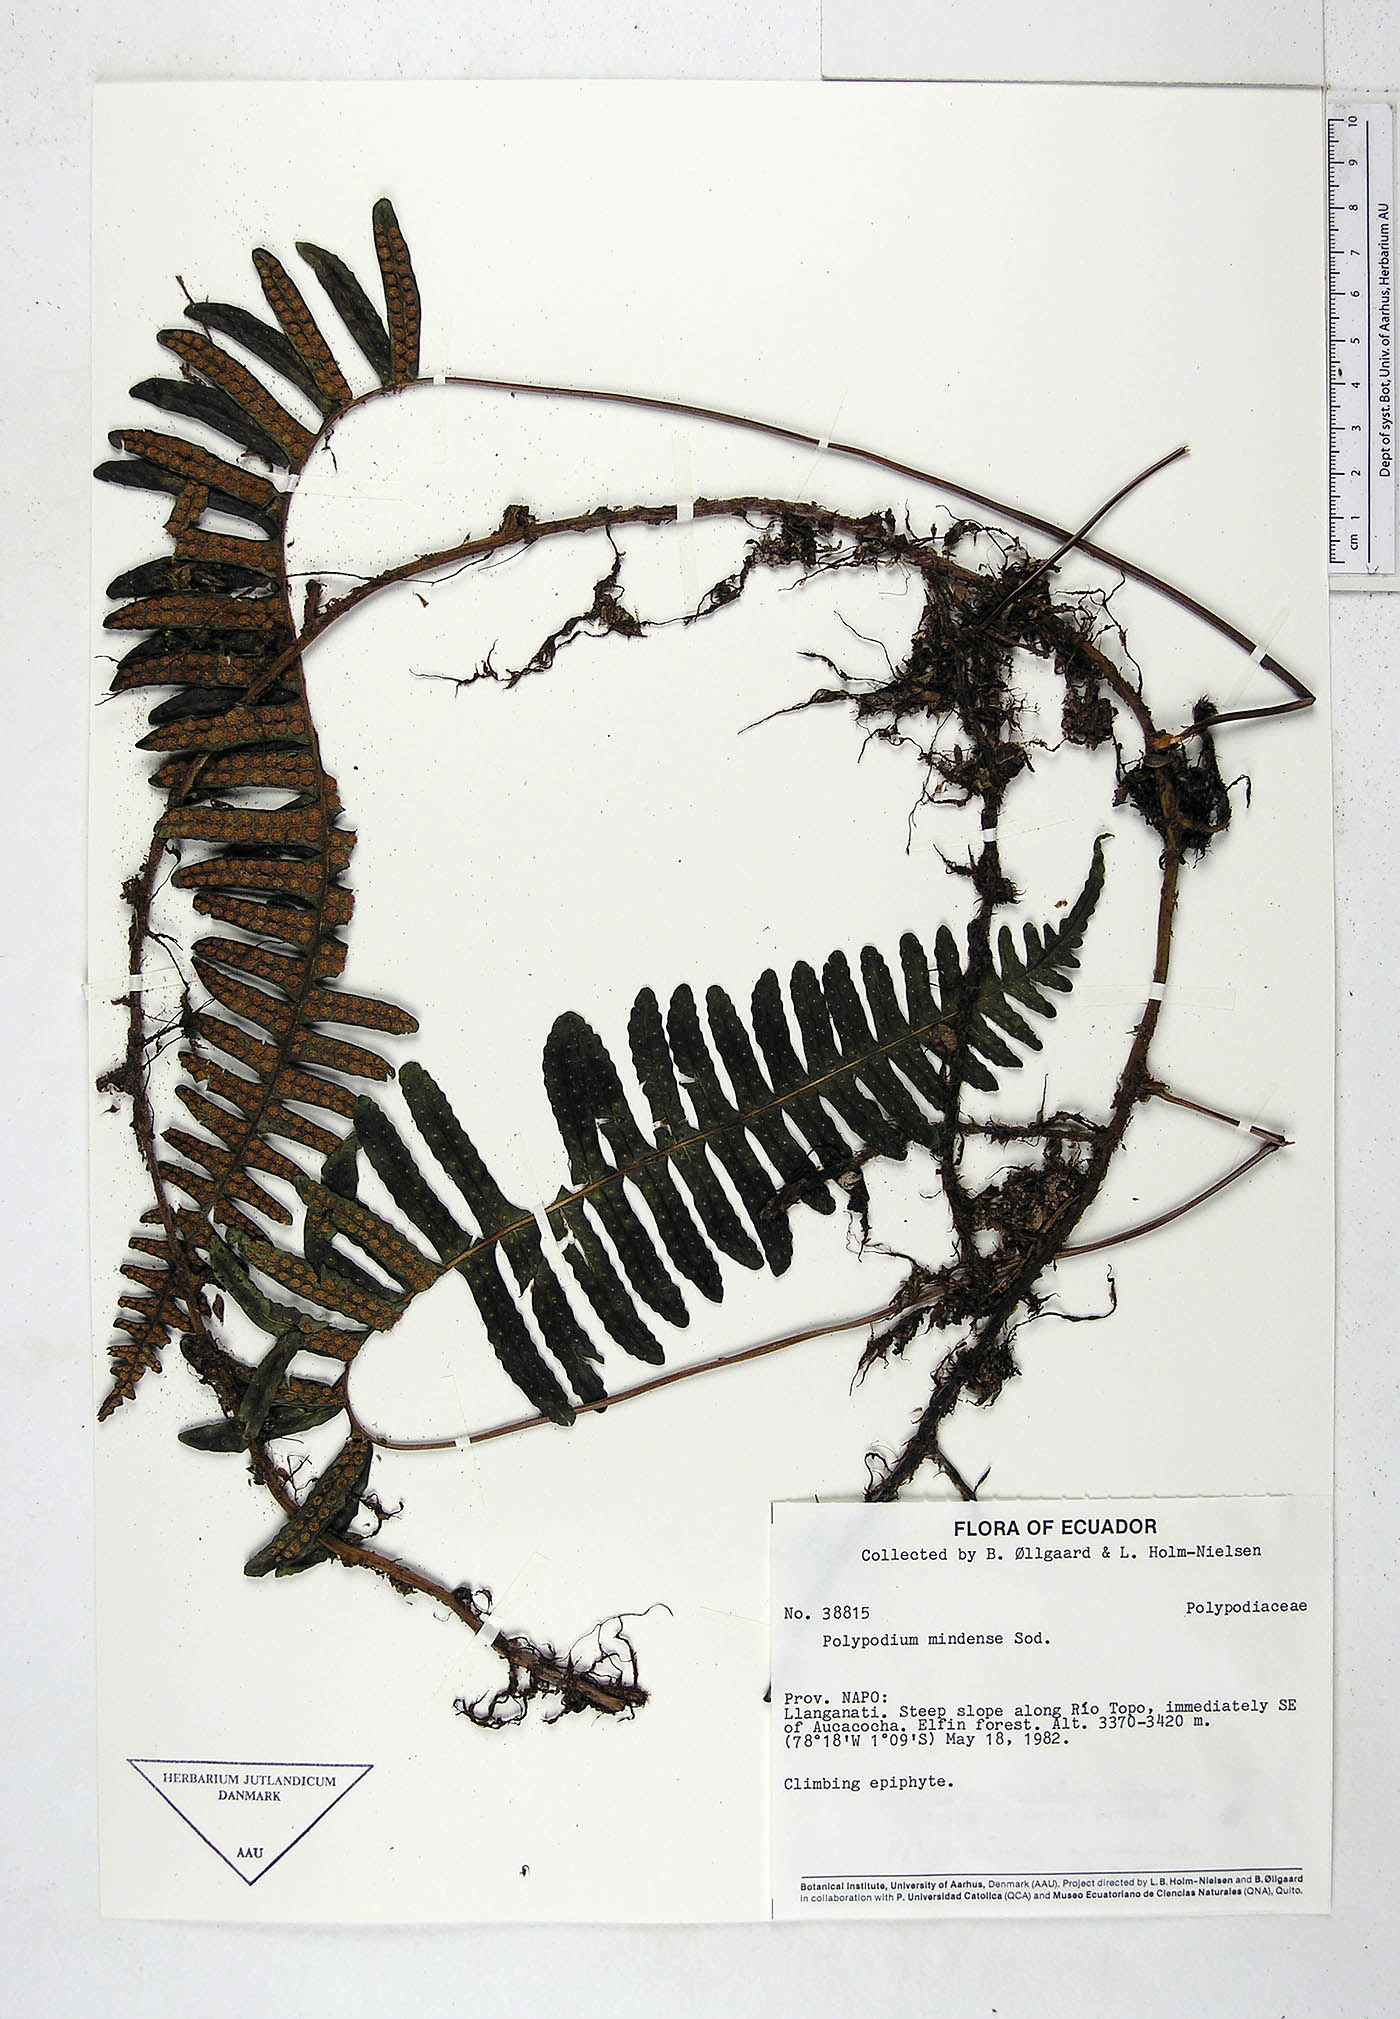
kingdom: Plantae
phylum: Tracheophyta
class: Polypodiopsida
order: Polypodiales
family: Polypodiaceae
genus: Serpocaulon
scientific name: Serpocaulon eleutherophlebium
